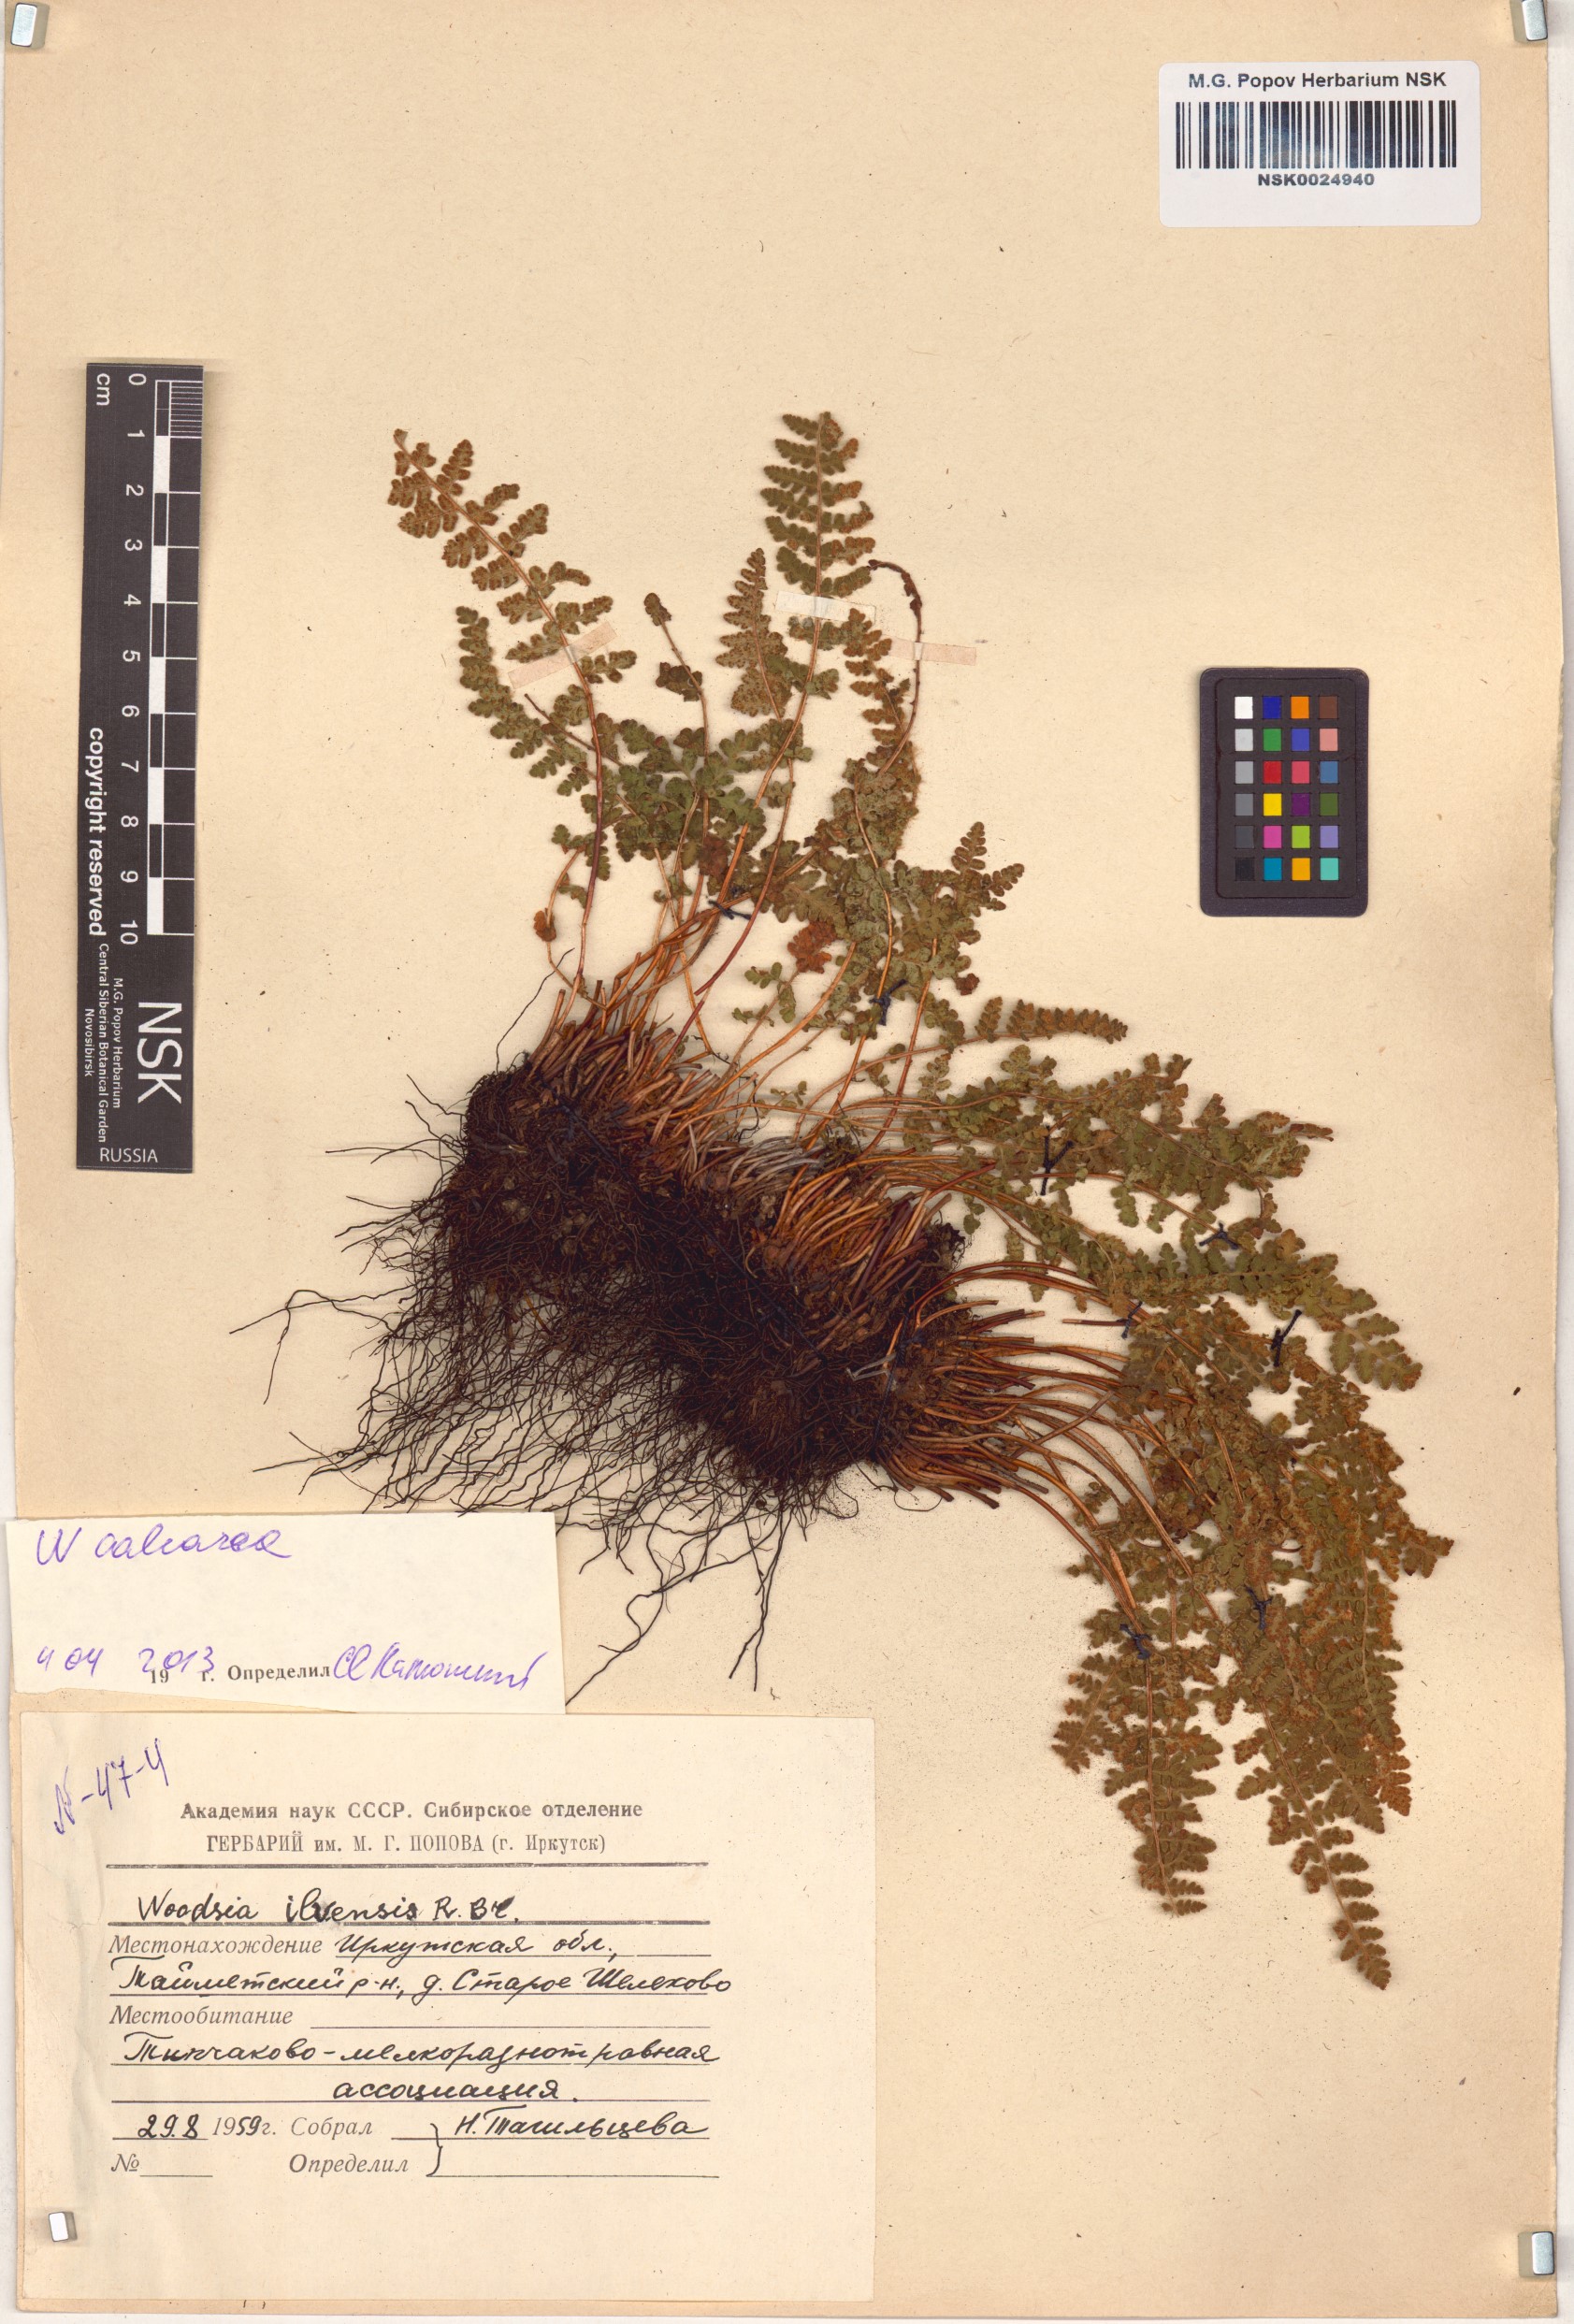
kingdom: Plantae
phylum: Tracheophyta
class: Polypodiopsida
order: Polypodiales
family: Woodsiaceae
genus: Woodsia
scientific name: Woodsia ilvensis
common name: Fragrant woodsia
